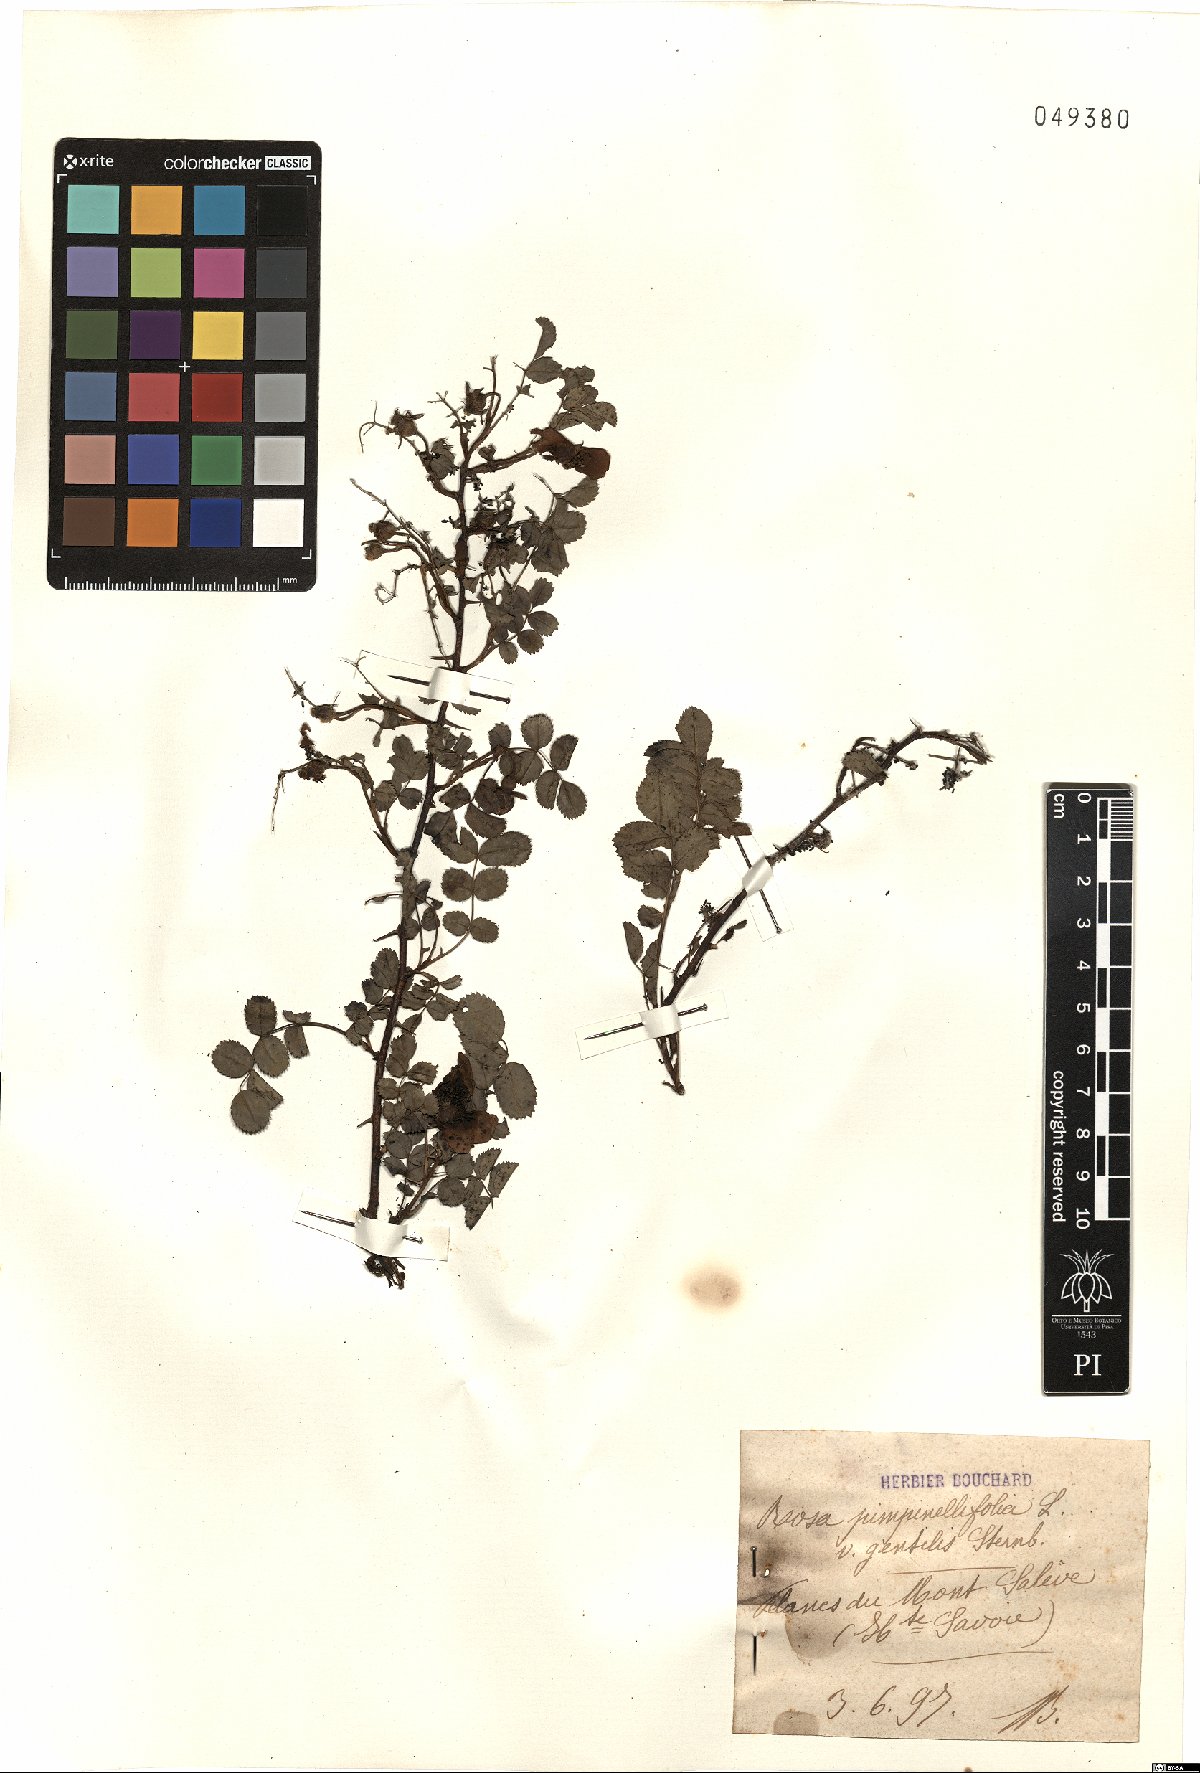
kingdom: Plantae
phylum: Tracheophyta
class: Magnoliopsida
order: Rosales
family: Rosaceae
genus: Rosa
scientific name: Rosa spinosissima
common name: Burnet rose
